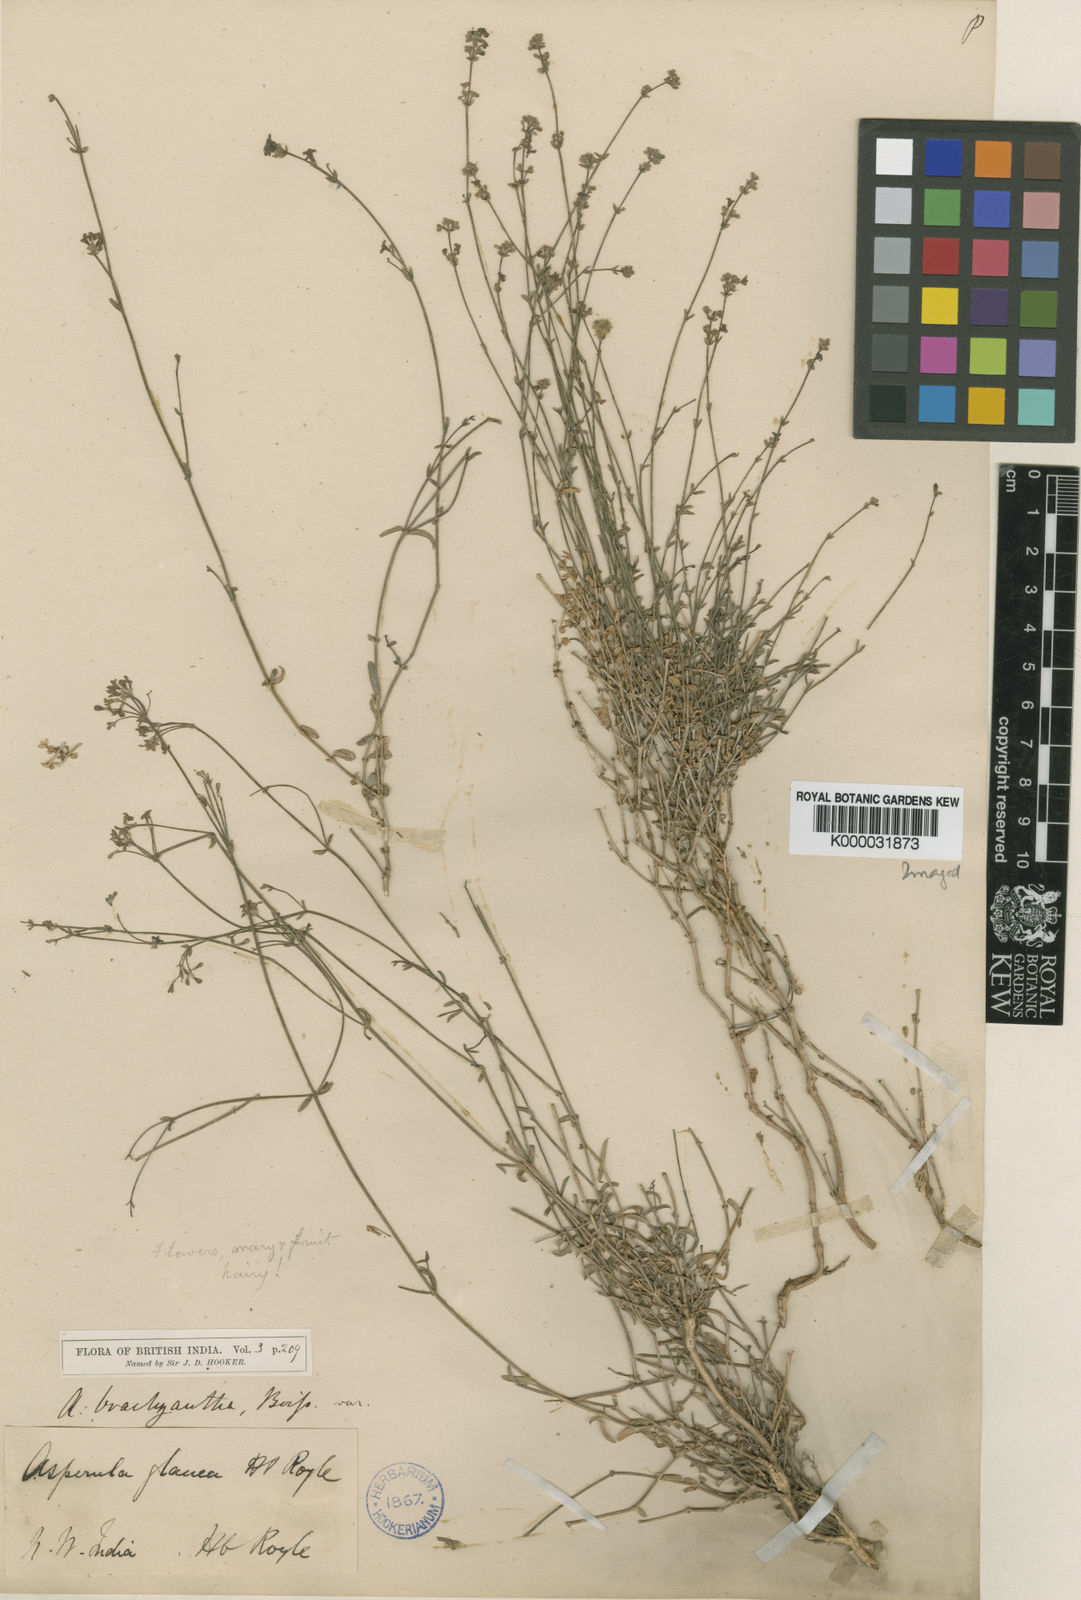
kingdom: Plantae
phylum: Tracheophyta
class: Magnoliopsida
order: Gentianales
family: Rubiaceae
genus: Asperula
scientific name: Asperula brachyantha
